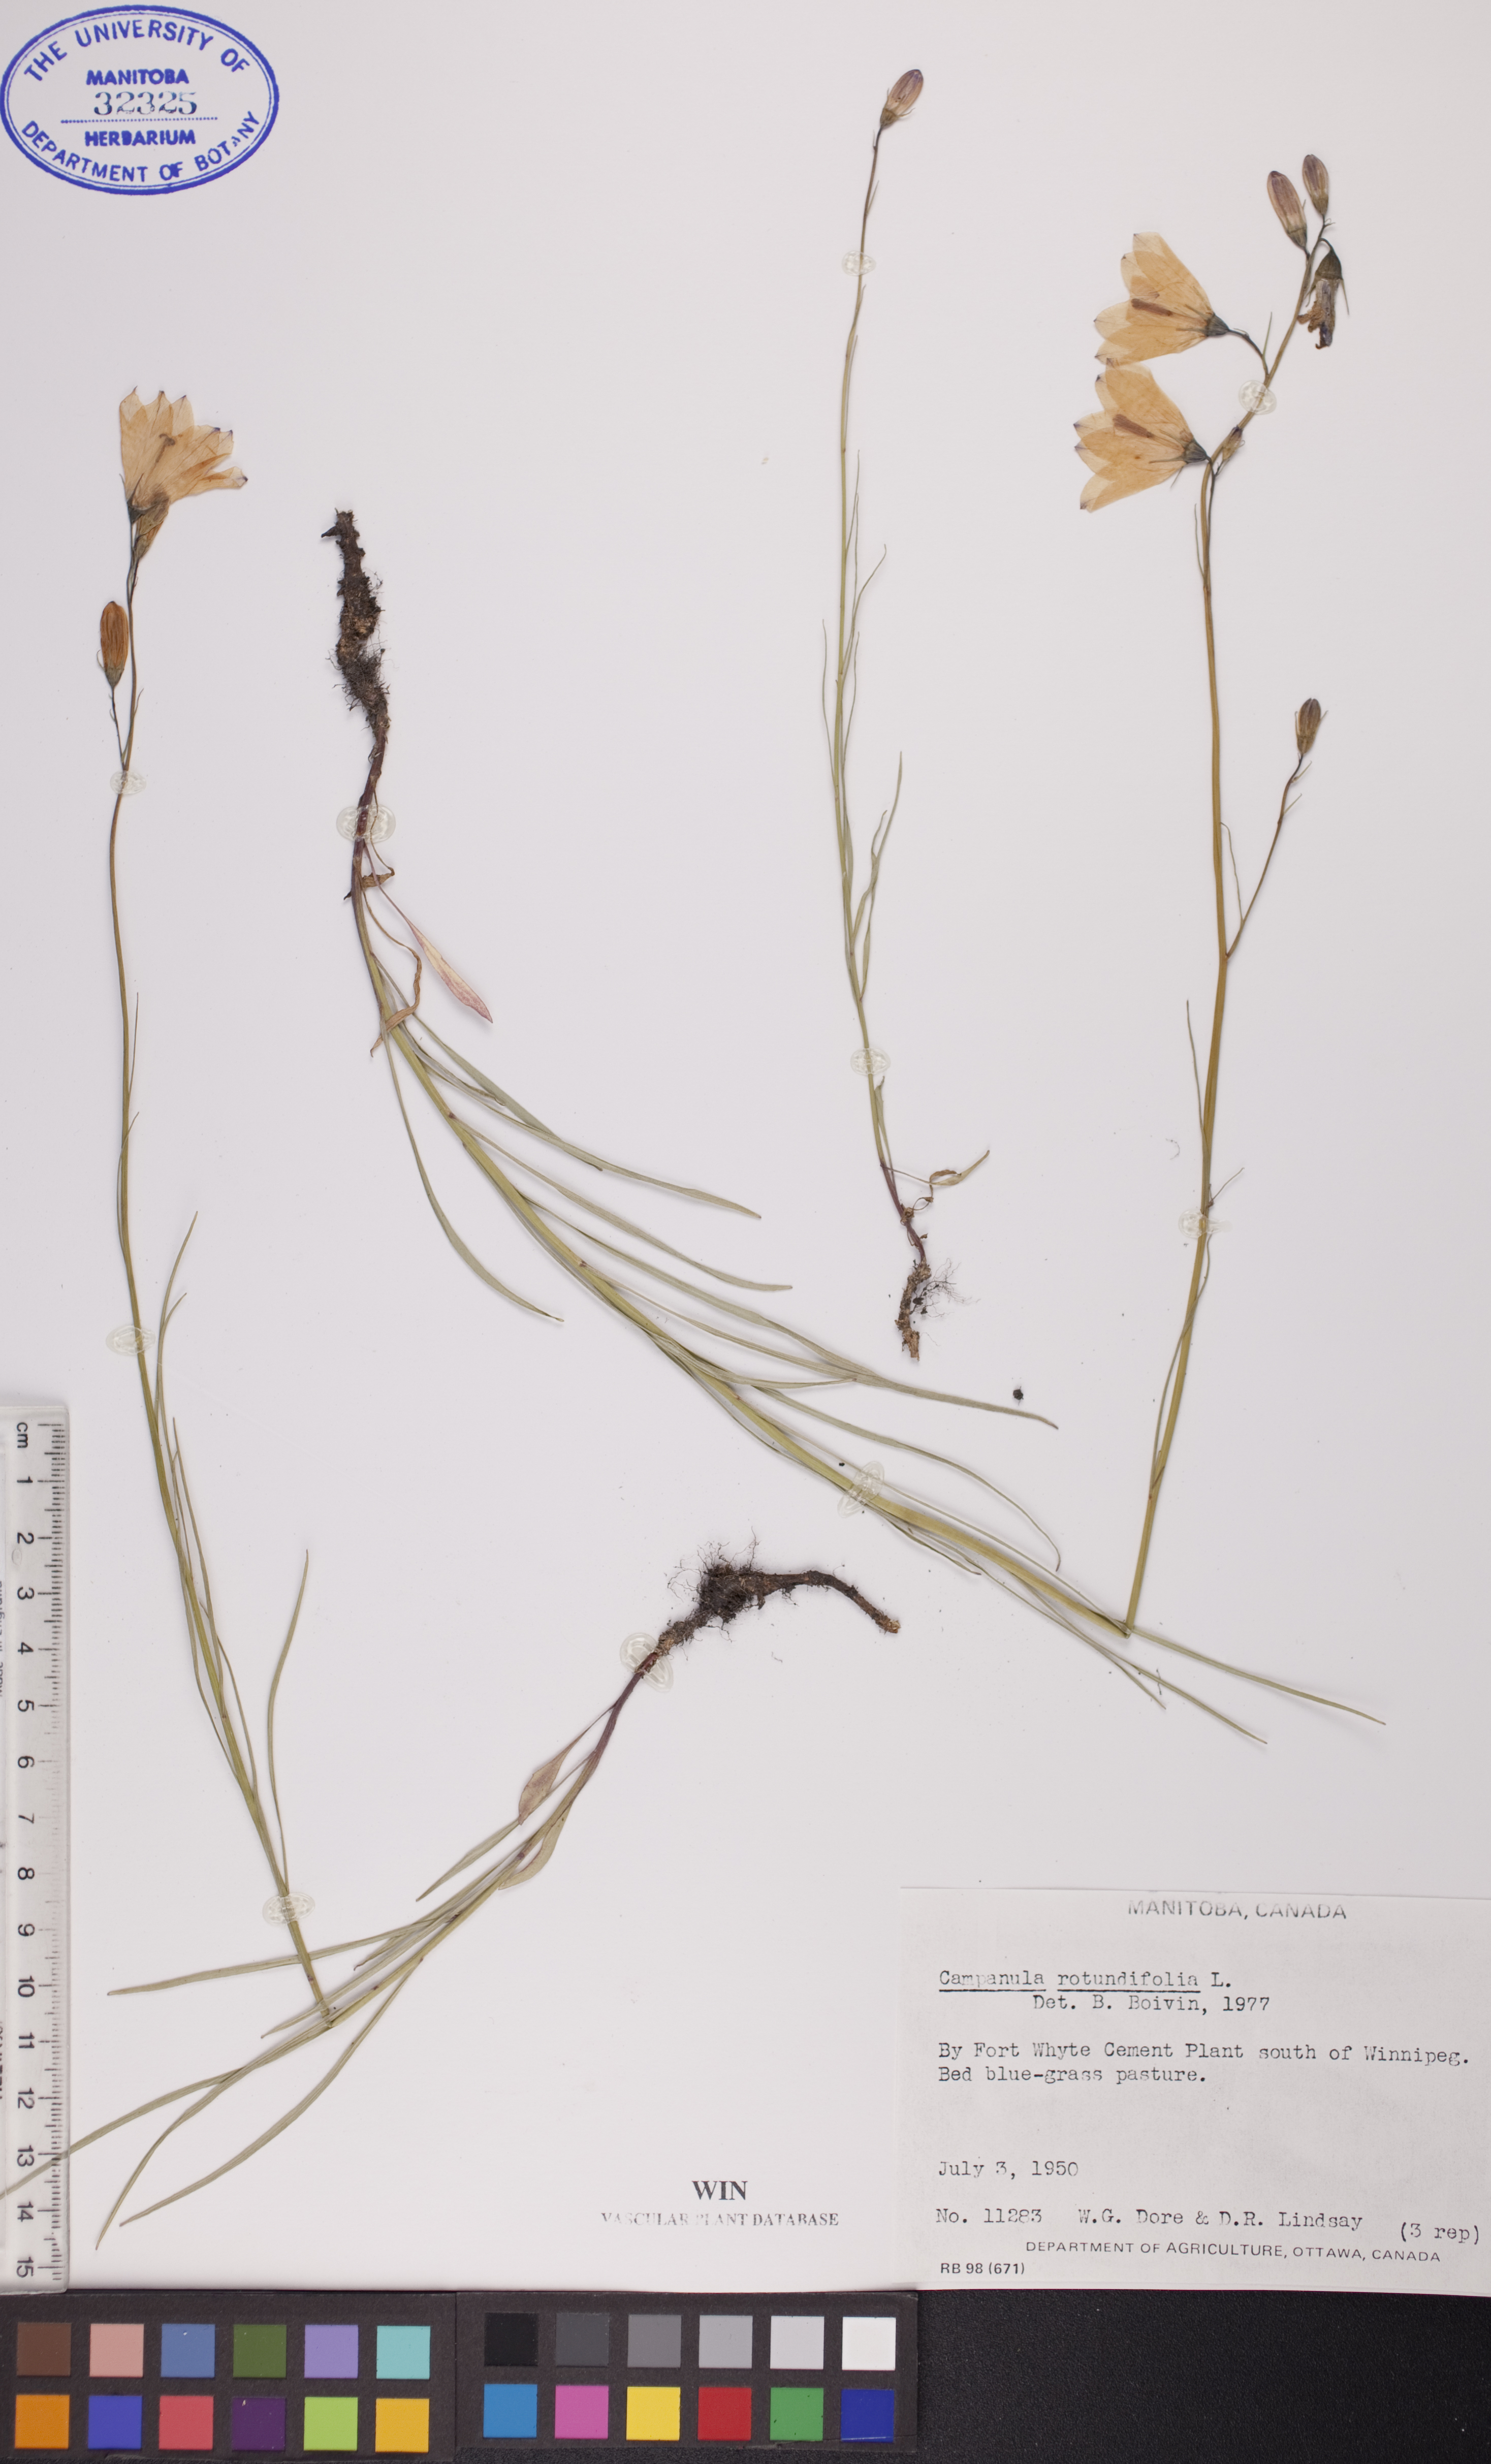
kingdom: Plantae
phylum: Tracheophyta
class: Magnoliopsida
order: Asterales
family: Campanulaceae
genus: Campanula
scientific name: Campanula rotundifolia
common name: Harebell
